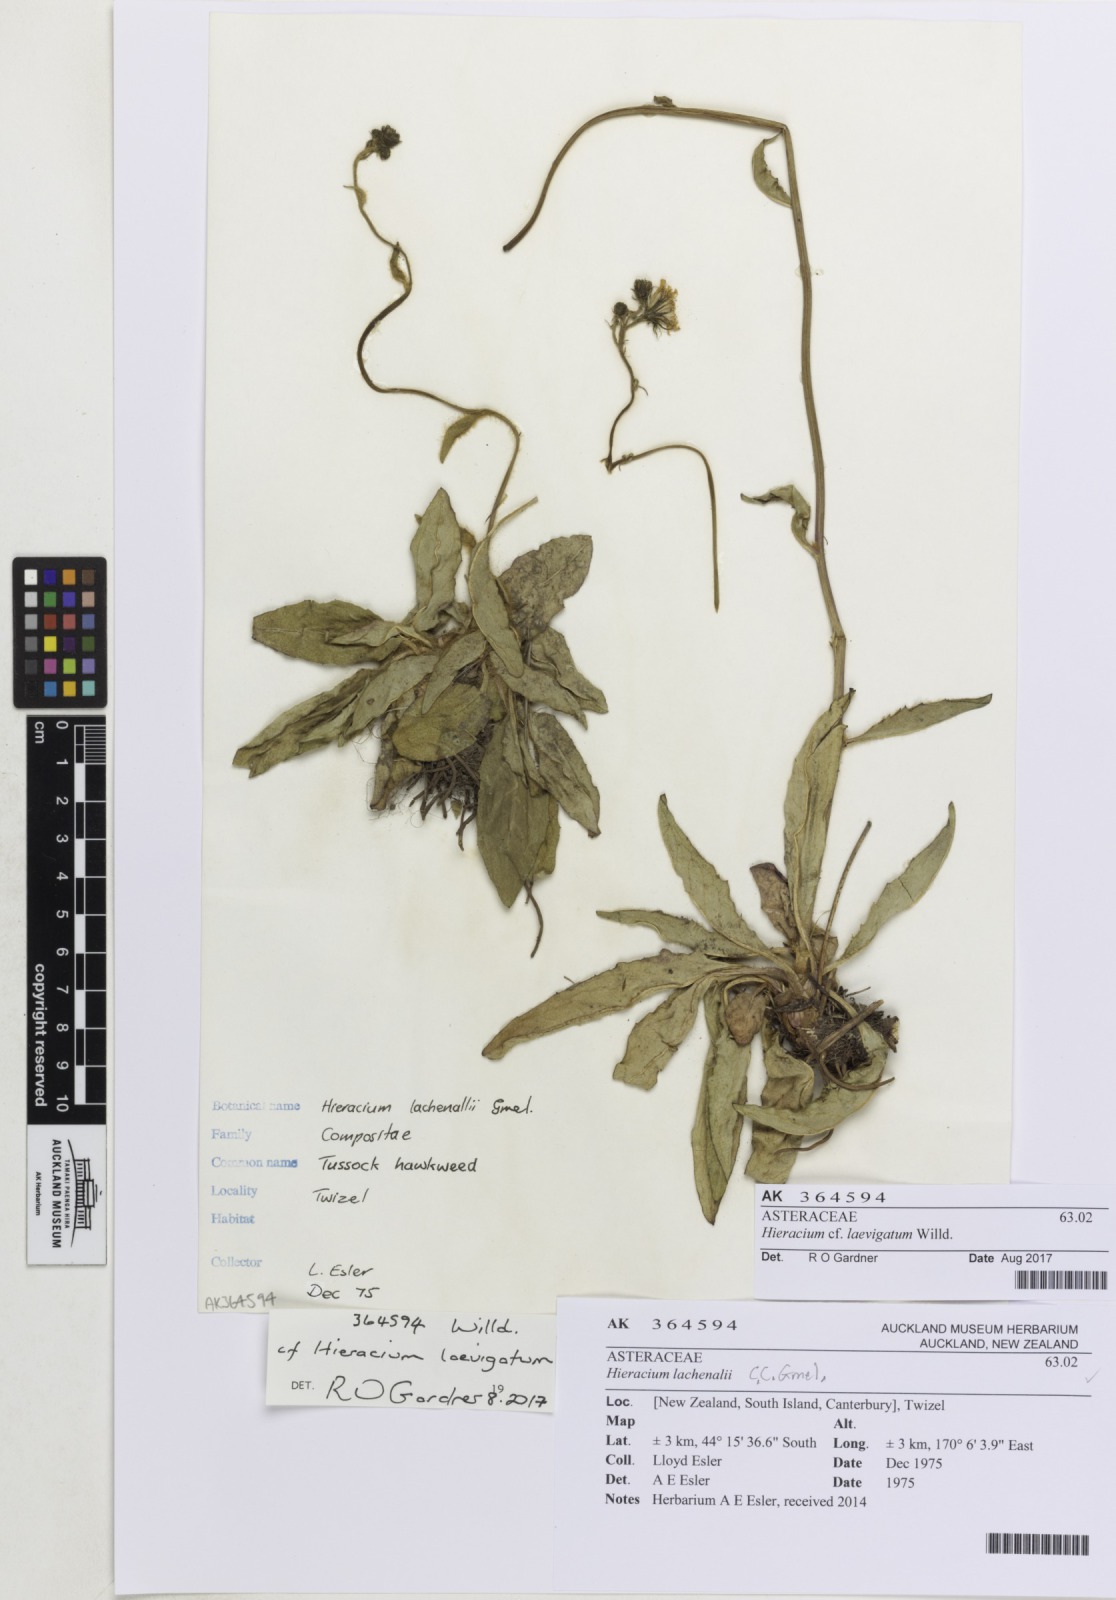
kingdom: Plantae
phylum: Tracheophyta
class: Magnoliopsida
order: Asterales
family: Asteraceae
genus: Hieracium
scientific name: Hieracium laevigatum
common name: Smooth hawkweed
